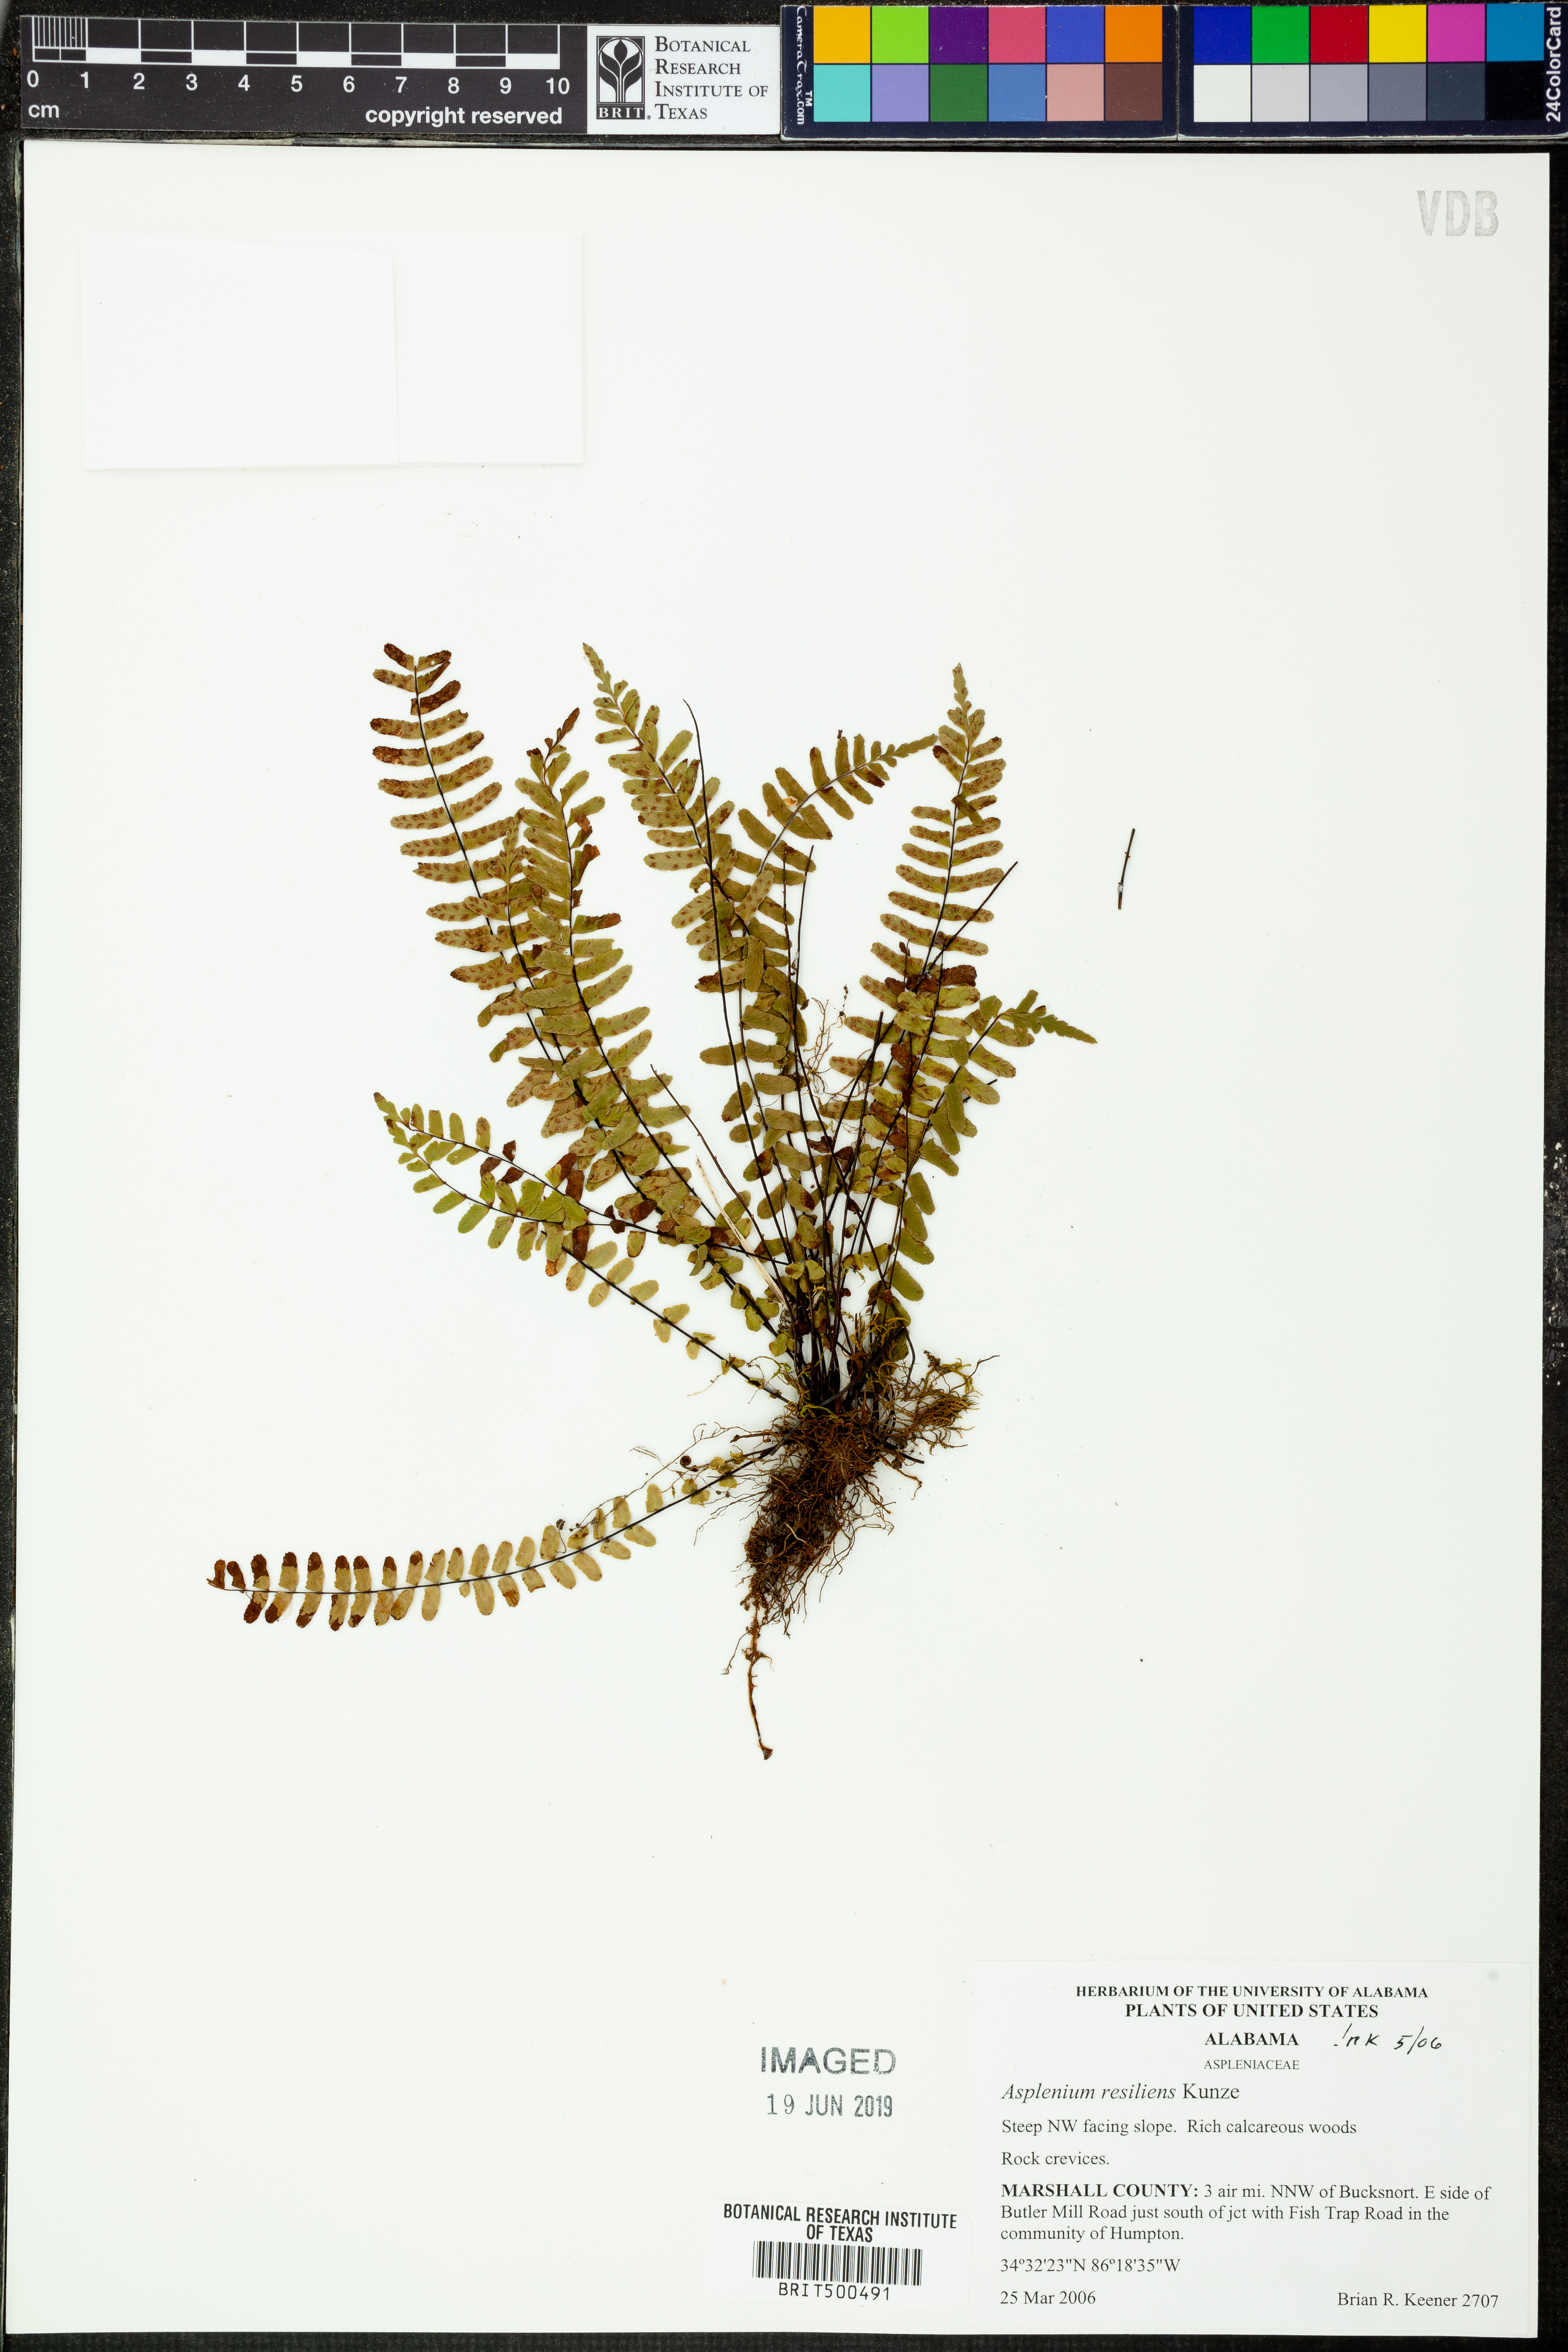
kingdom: Plantae
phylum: Tracheophyta
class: Polypodiopsida
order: Polypodiales
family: Aspleniaceae
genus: Asplenium
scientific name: Asplenium resiliens
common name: Blackstem spleenwort
